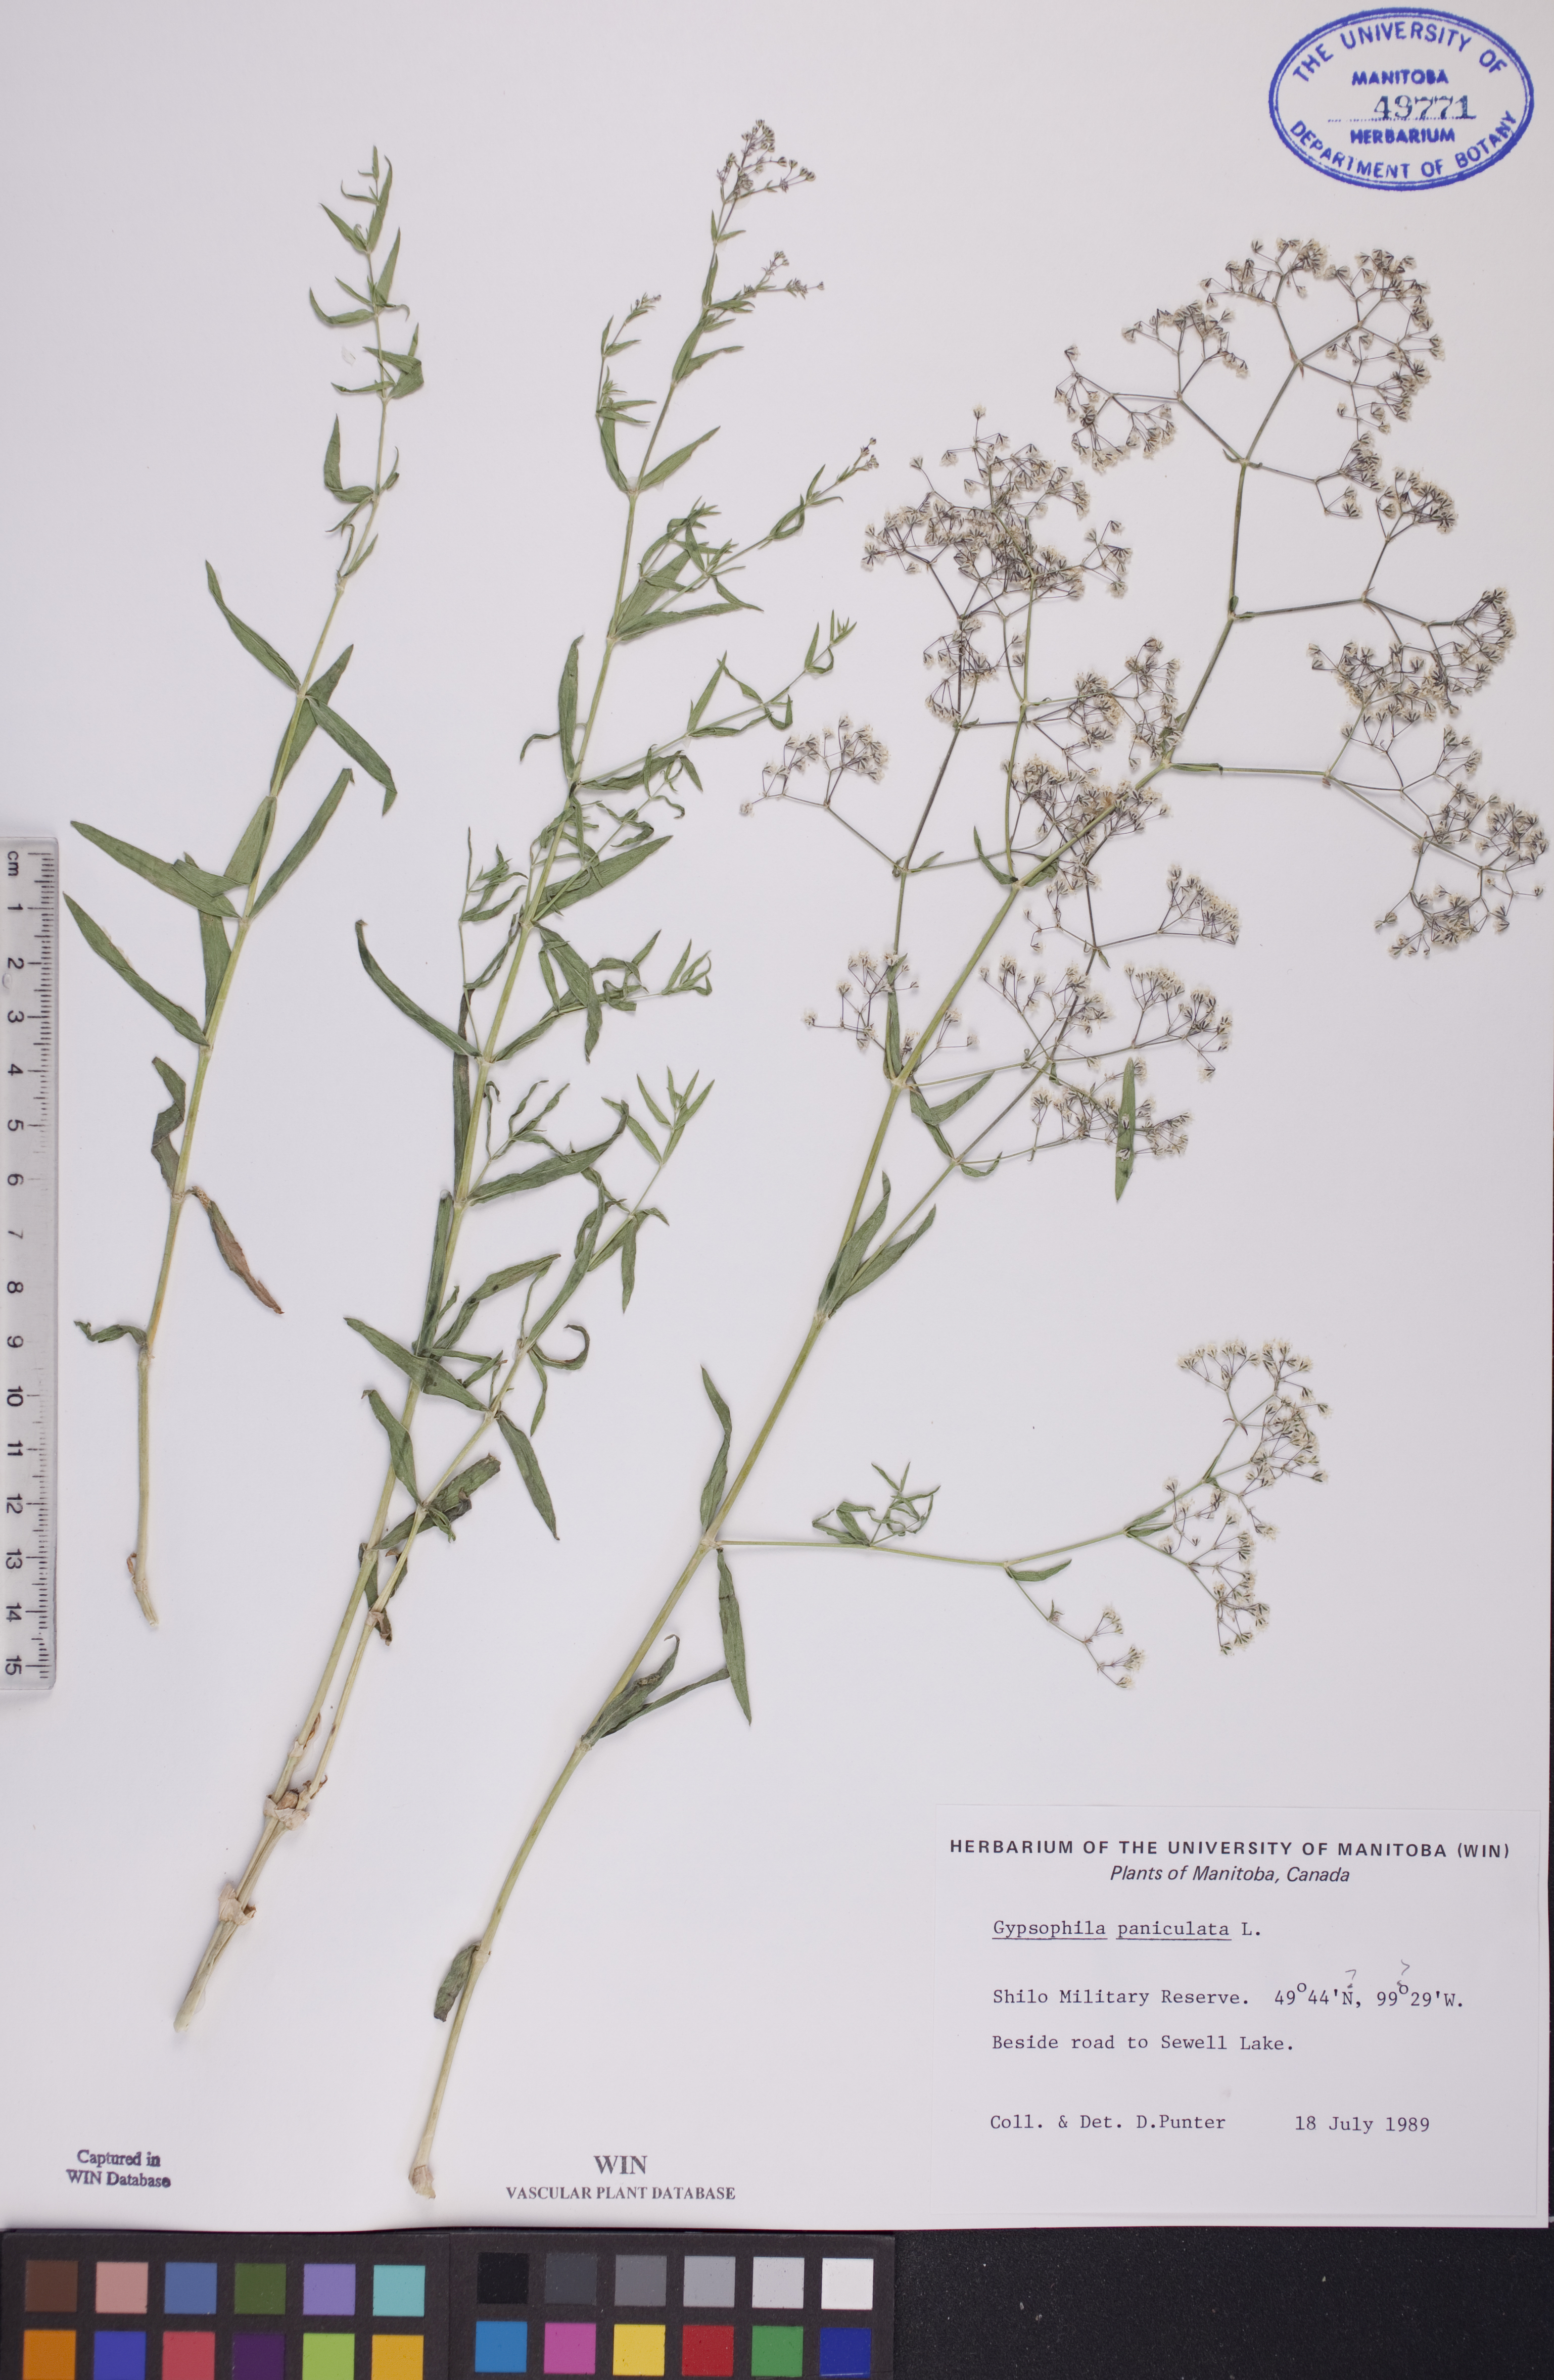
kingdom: Plantae
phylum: Tracheophyta
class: Magnoliopsida
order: Caryophyllales
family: Caryophyllaceae
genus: Gypsophila
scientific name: Gypsophila paniculata
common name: Baby's-breath
